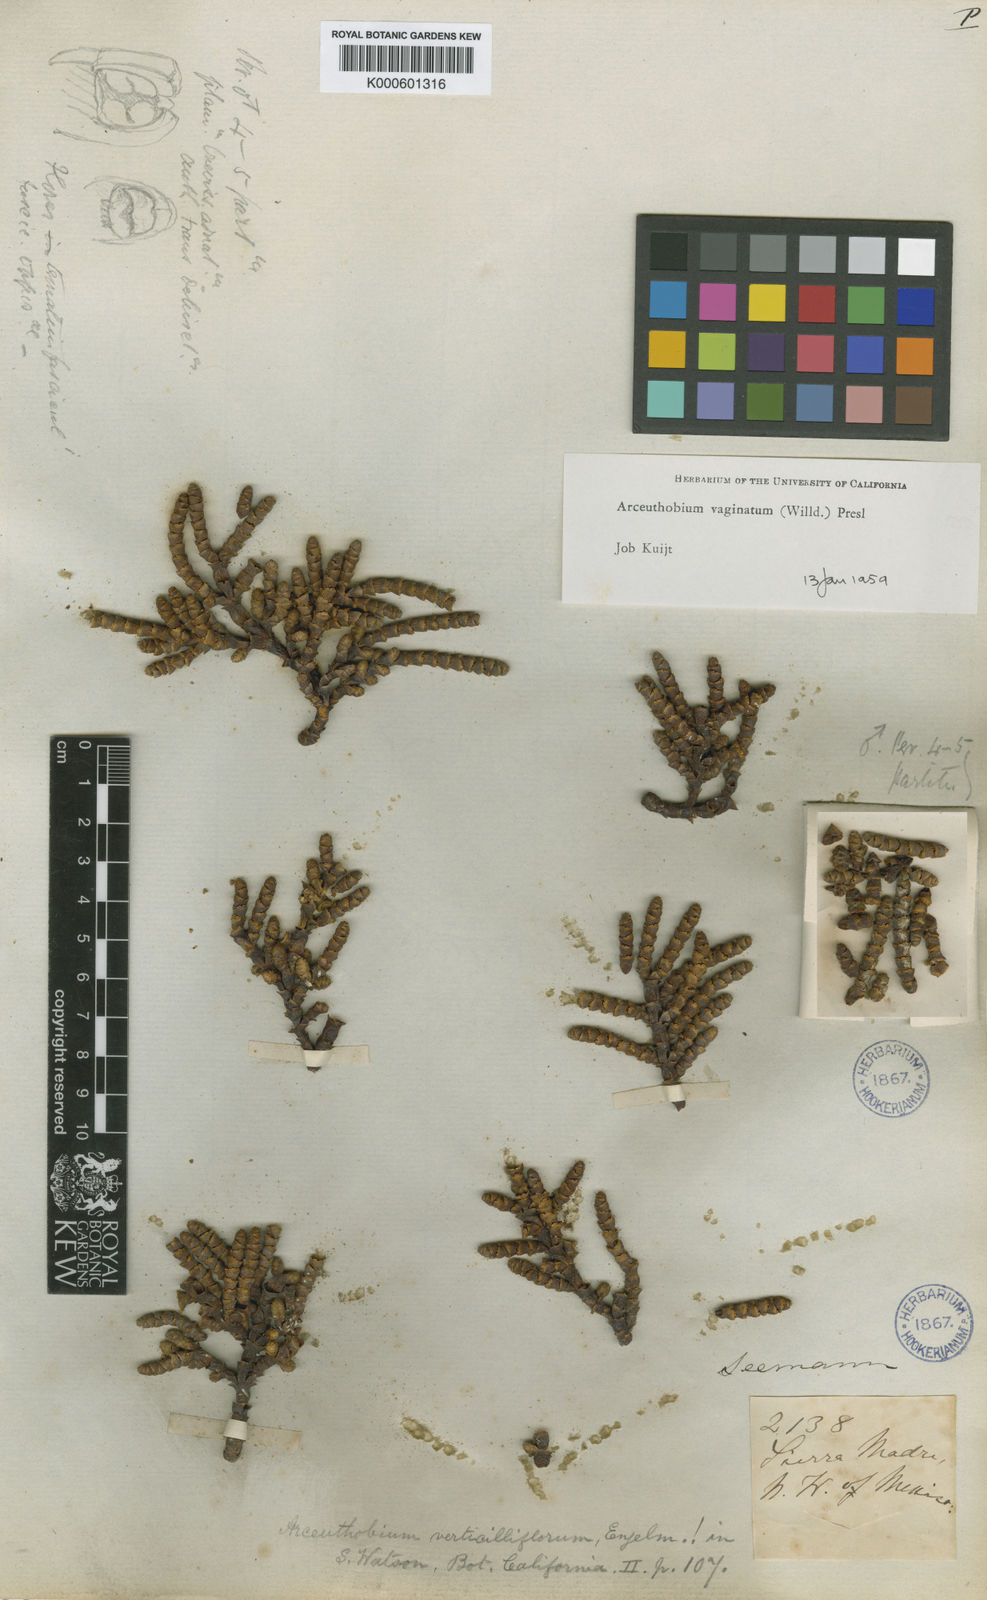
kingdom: Plantae
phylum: Tracheophyta
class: Magnoliopsida
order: Santalales
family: Viscaceae
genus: Arceuthobium
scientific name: Arceuthobium vaginatum
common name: Southwestern dwarf-mistletoe
